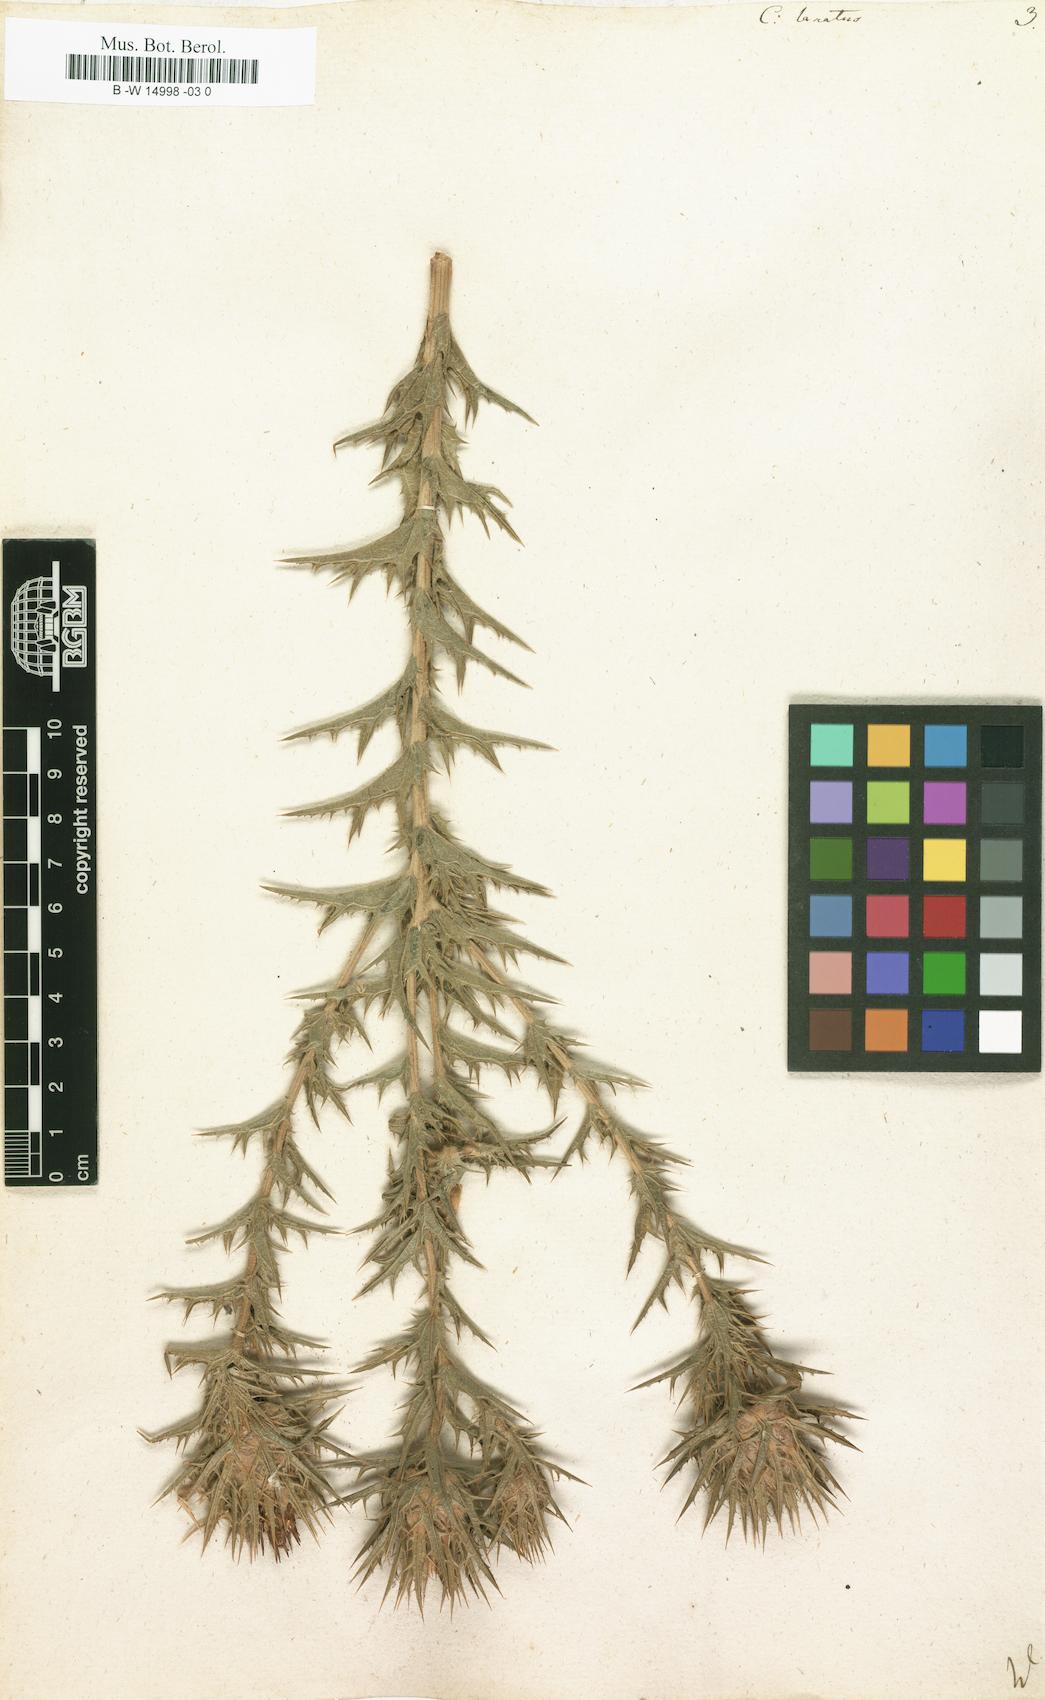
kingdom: Plantae
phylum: Tracheophyta
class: Magnoliopsida
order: Asterales
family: Asteraceae
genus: Carthamus
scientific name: Carthamus lanatus
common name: Downy safflower
